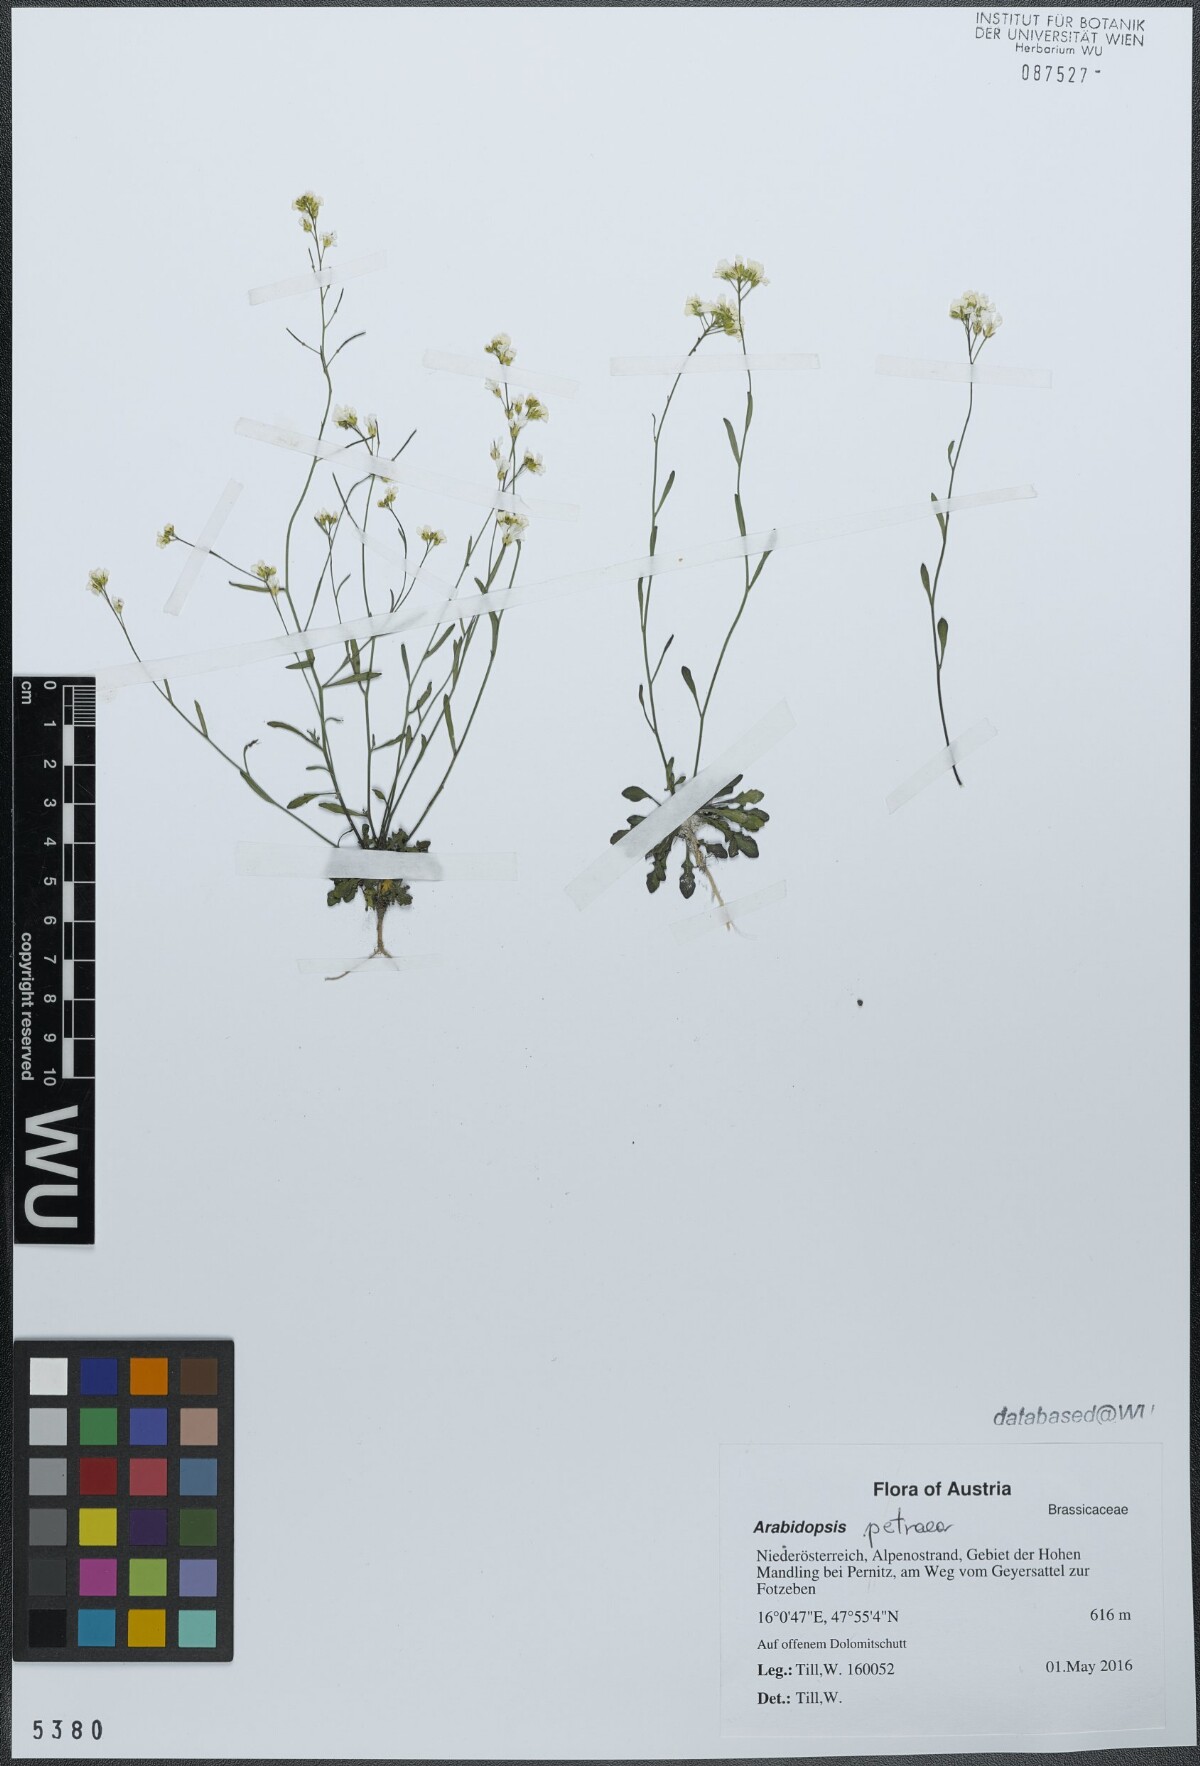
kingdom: Plantae
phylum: Tracheophyta
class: Magnoliopsida
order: Brassicales
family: Brassicaceae
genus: Arabidopsis
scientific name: Arabidopsis petraea
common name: Northern rock-cress
